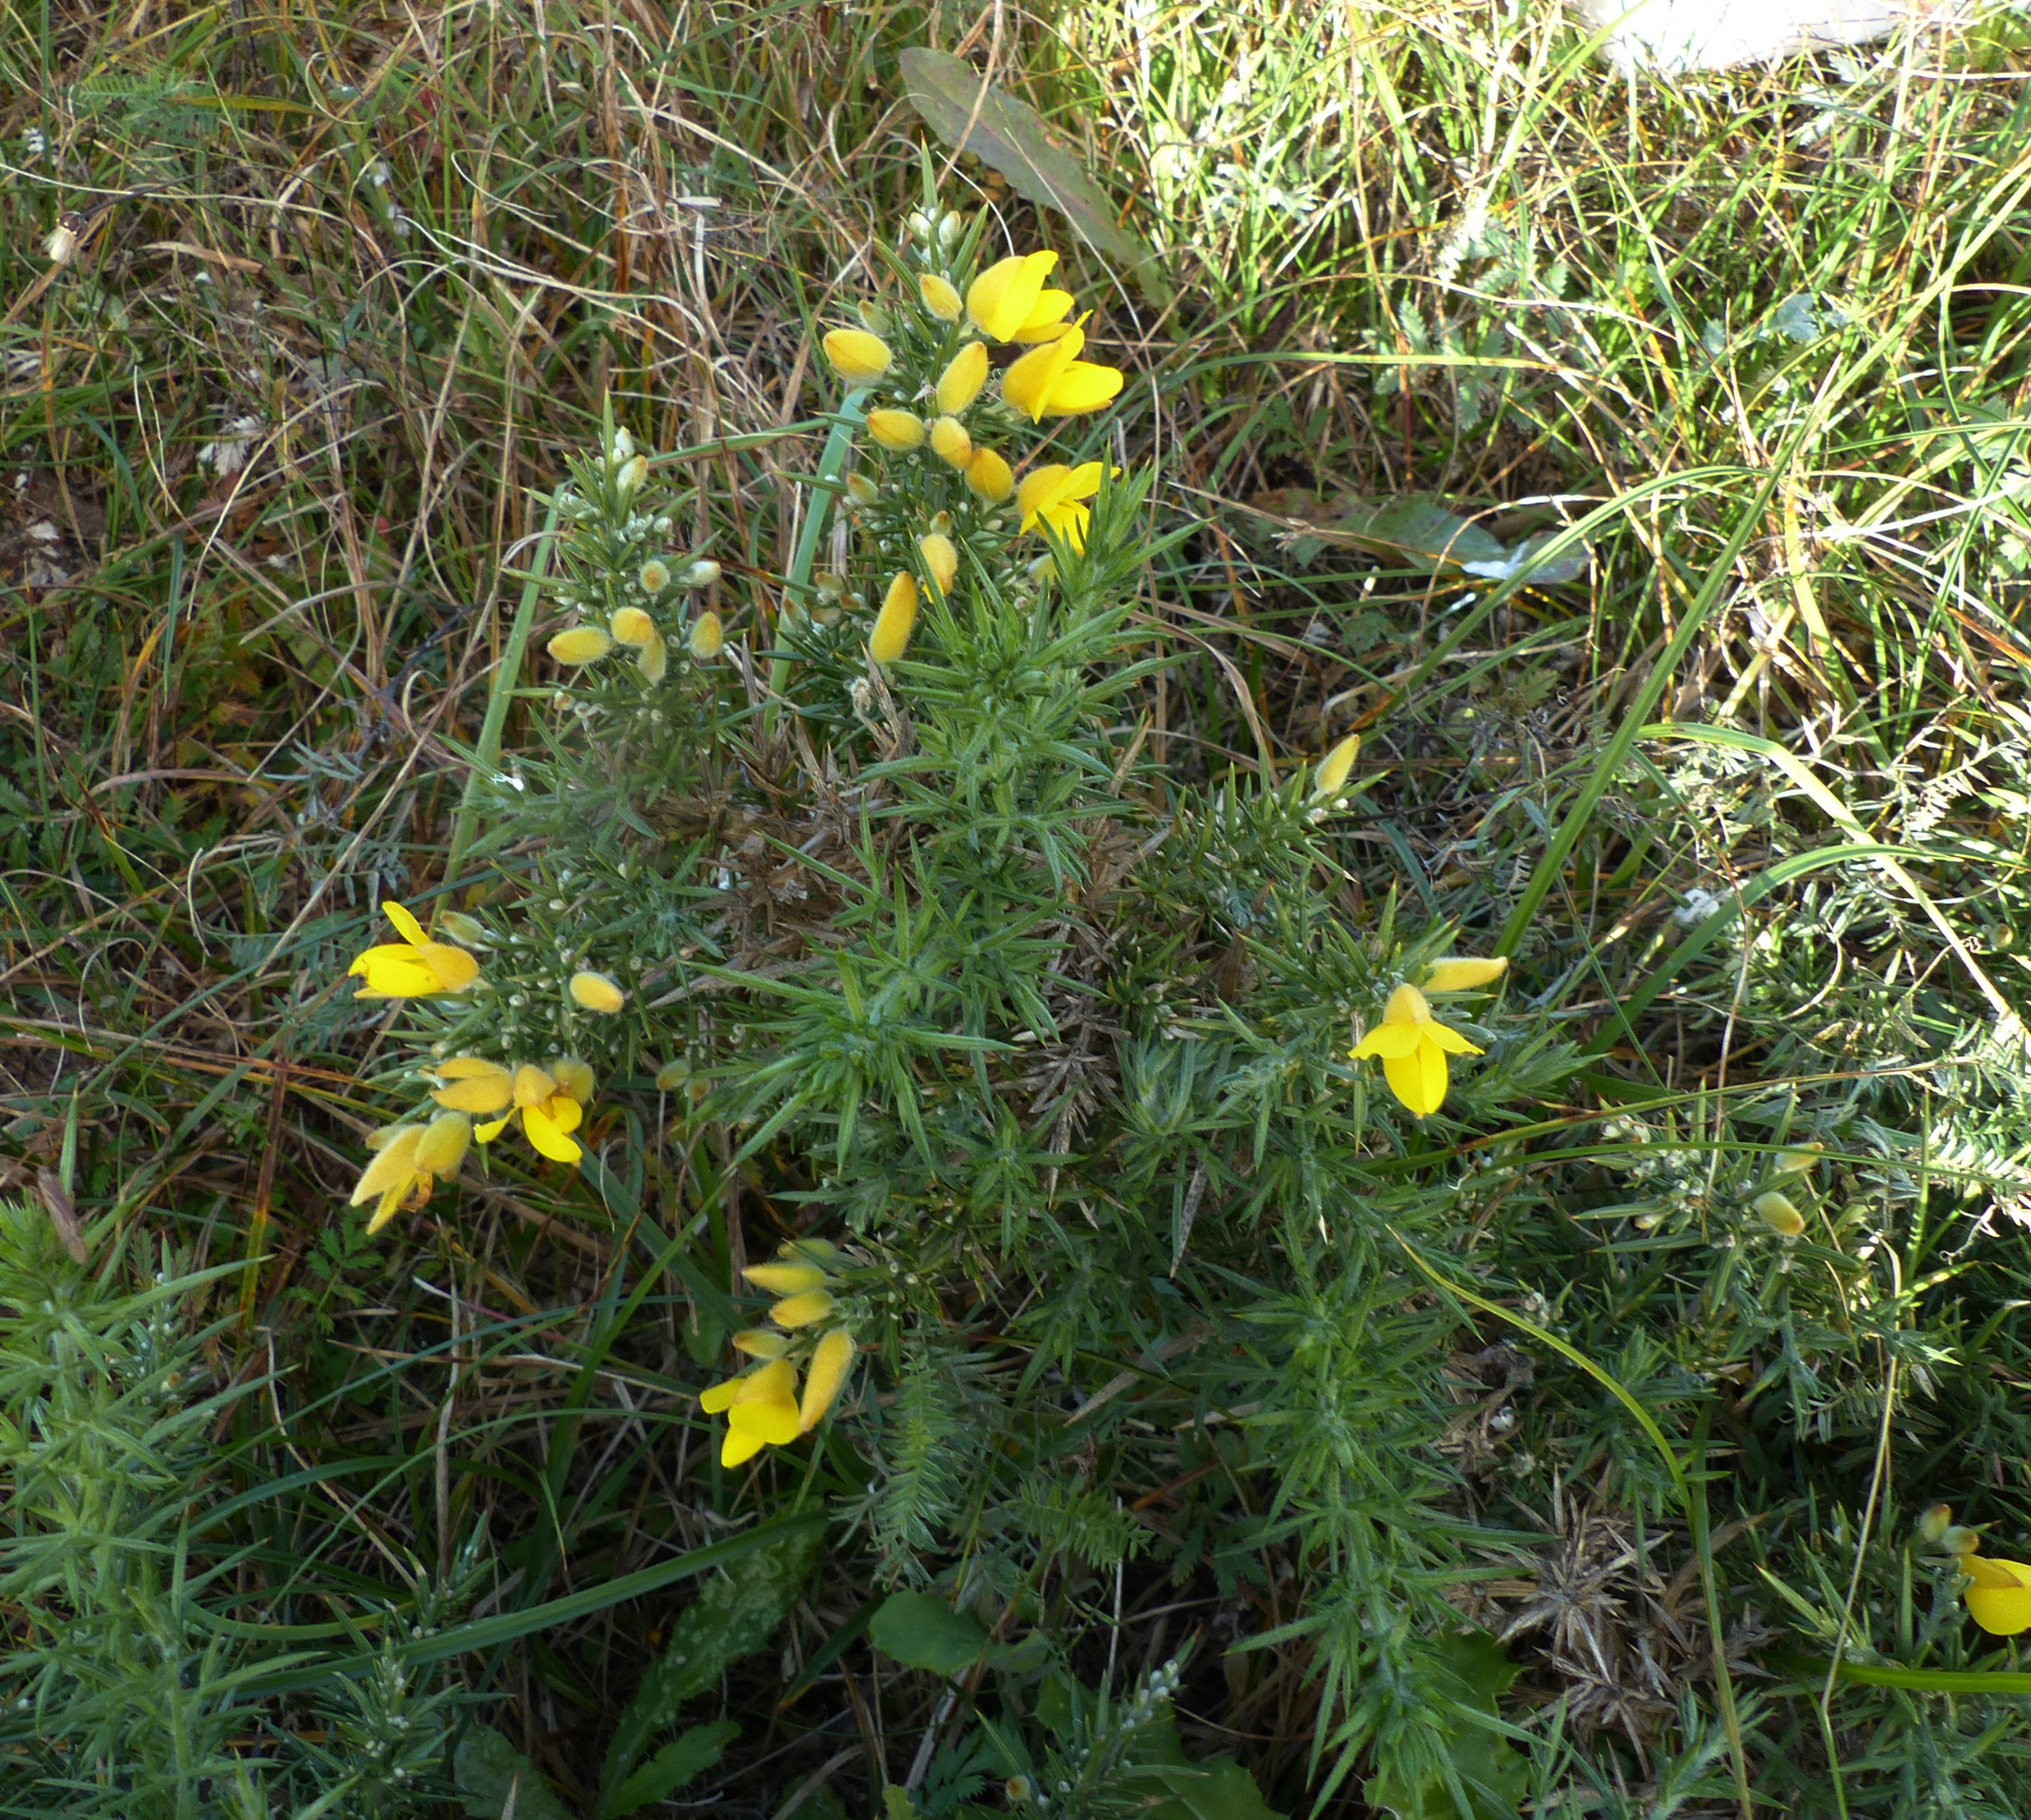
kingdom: Plantae
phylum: Tracheophyta
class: Magnoliopsida
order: Fabales
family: Fabaceae
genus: Ulex
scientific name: Ulex europaeus
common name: Tornblad
